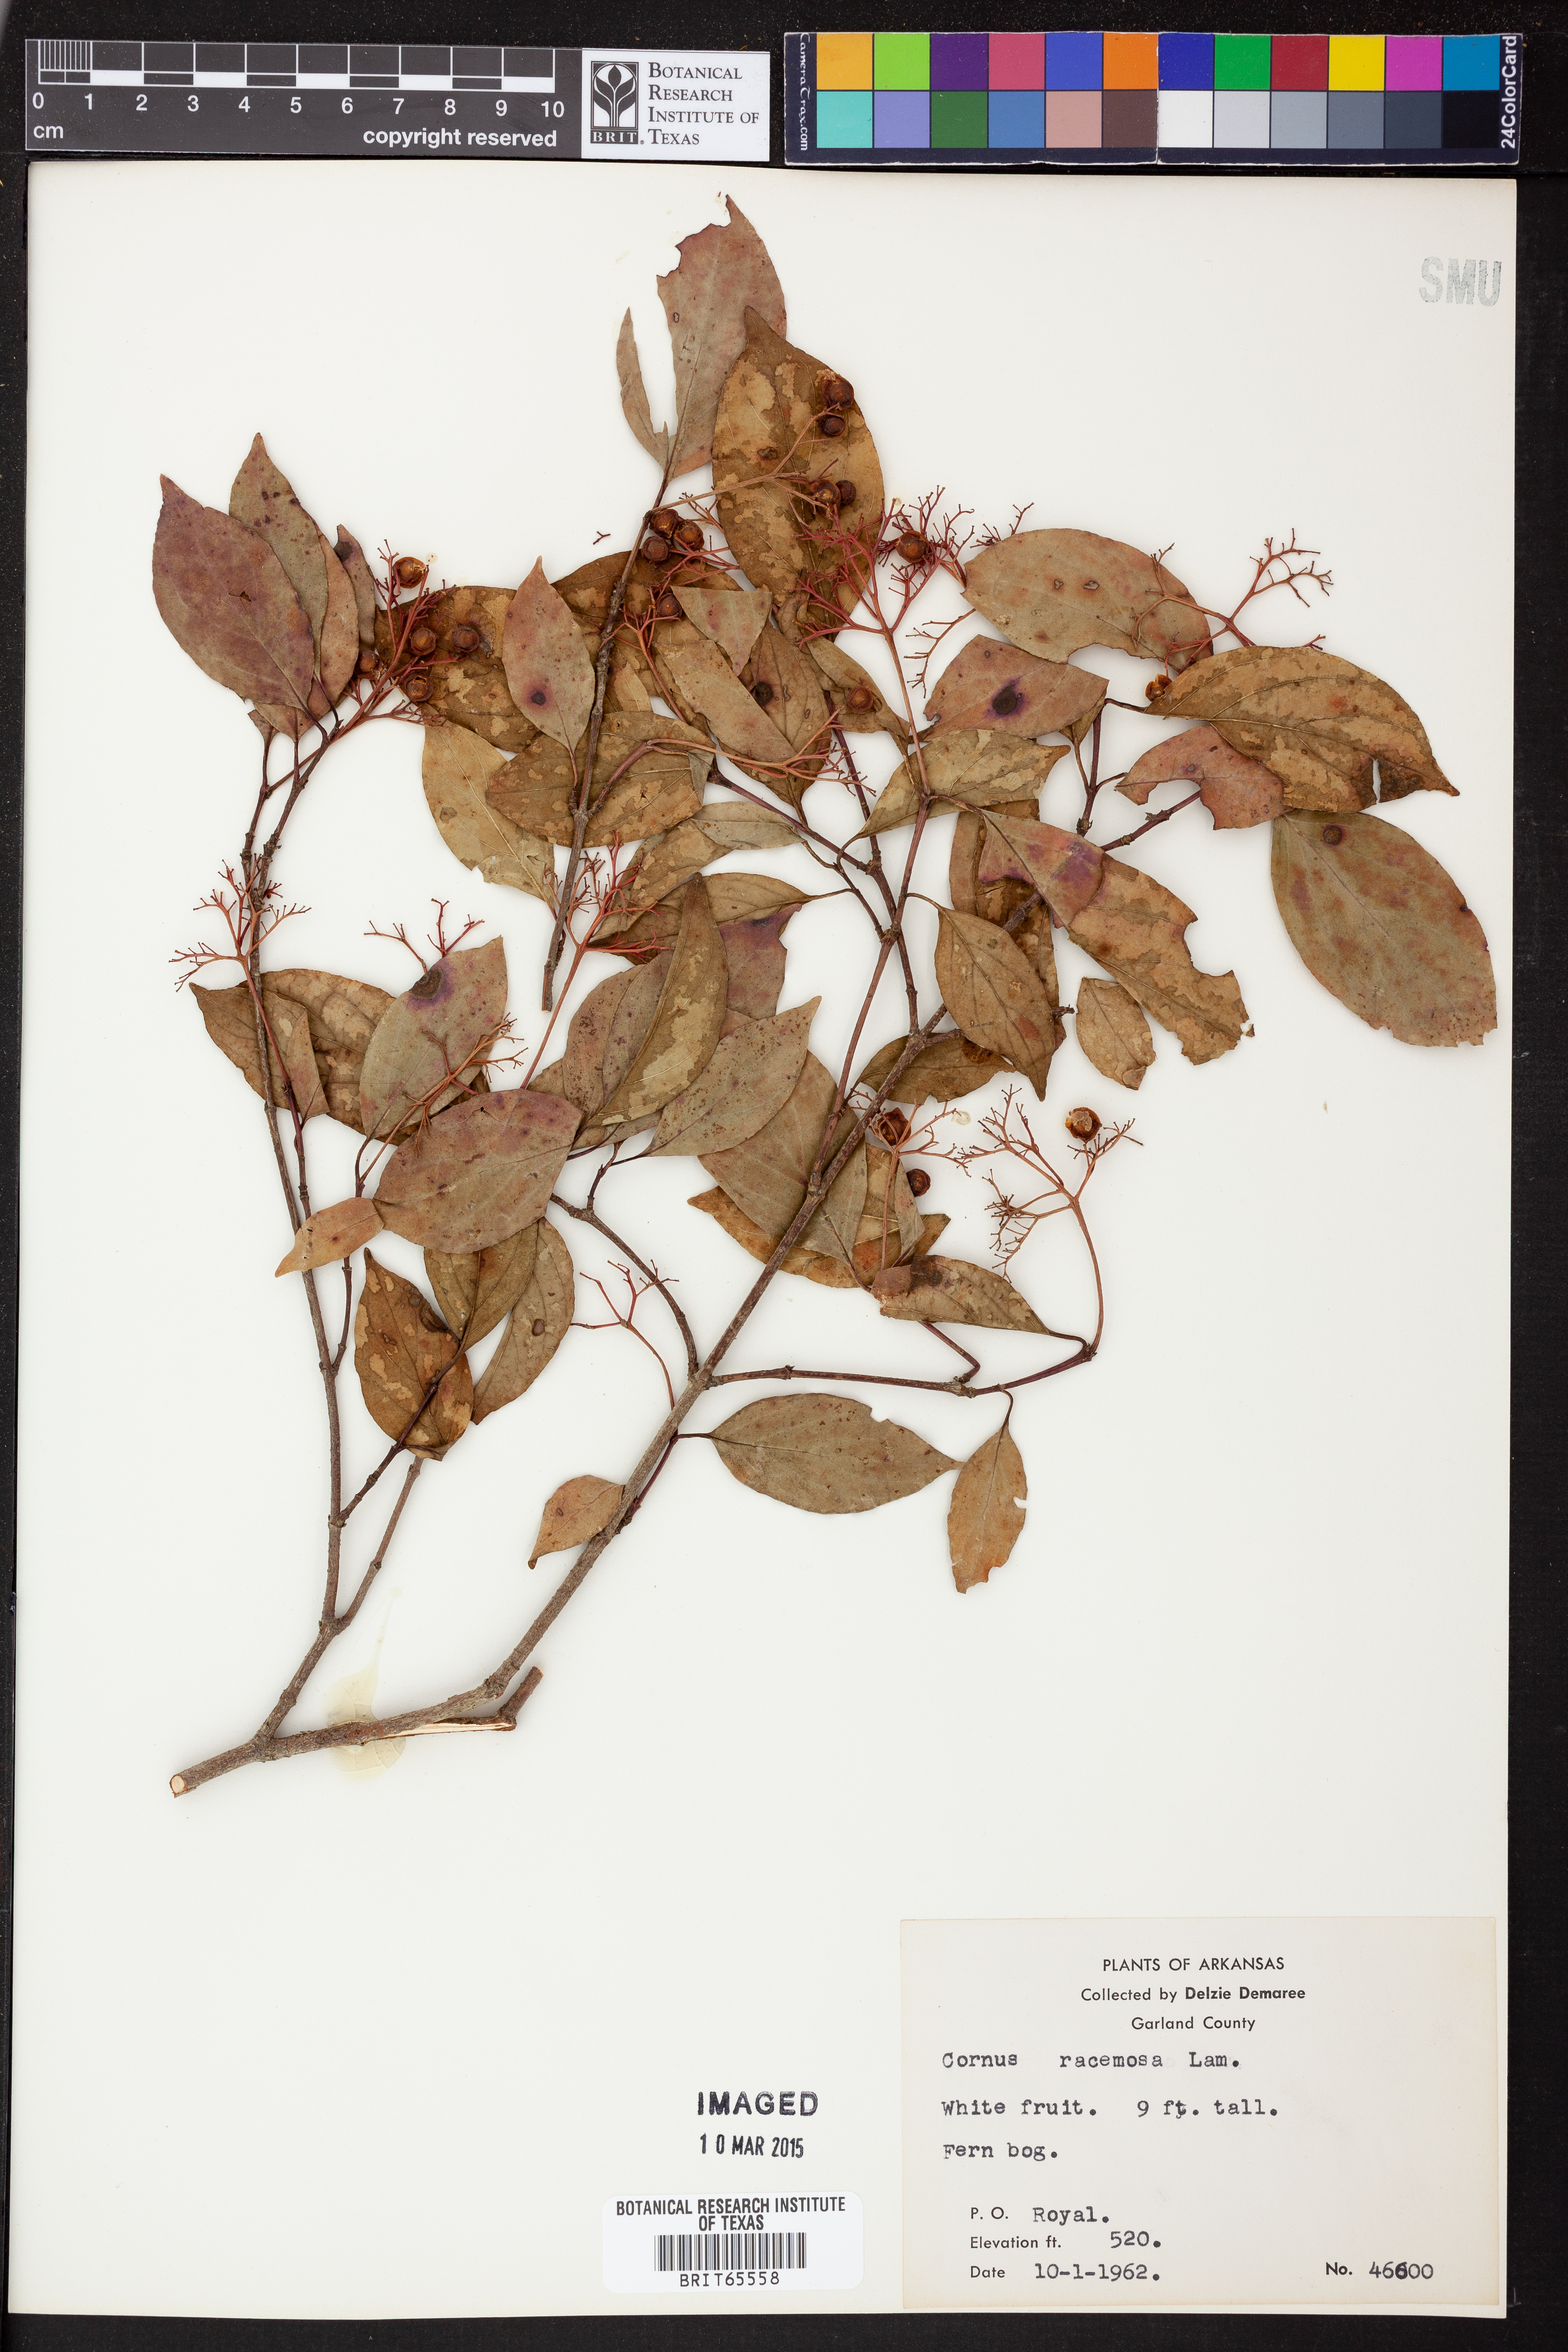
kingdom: Plantae
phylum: Tracheophyta
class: Magnoliopsida
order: Cornales
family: Cornaceae
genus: Cornus
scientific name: Cornus racemosa
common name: Panicled dogwood
